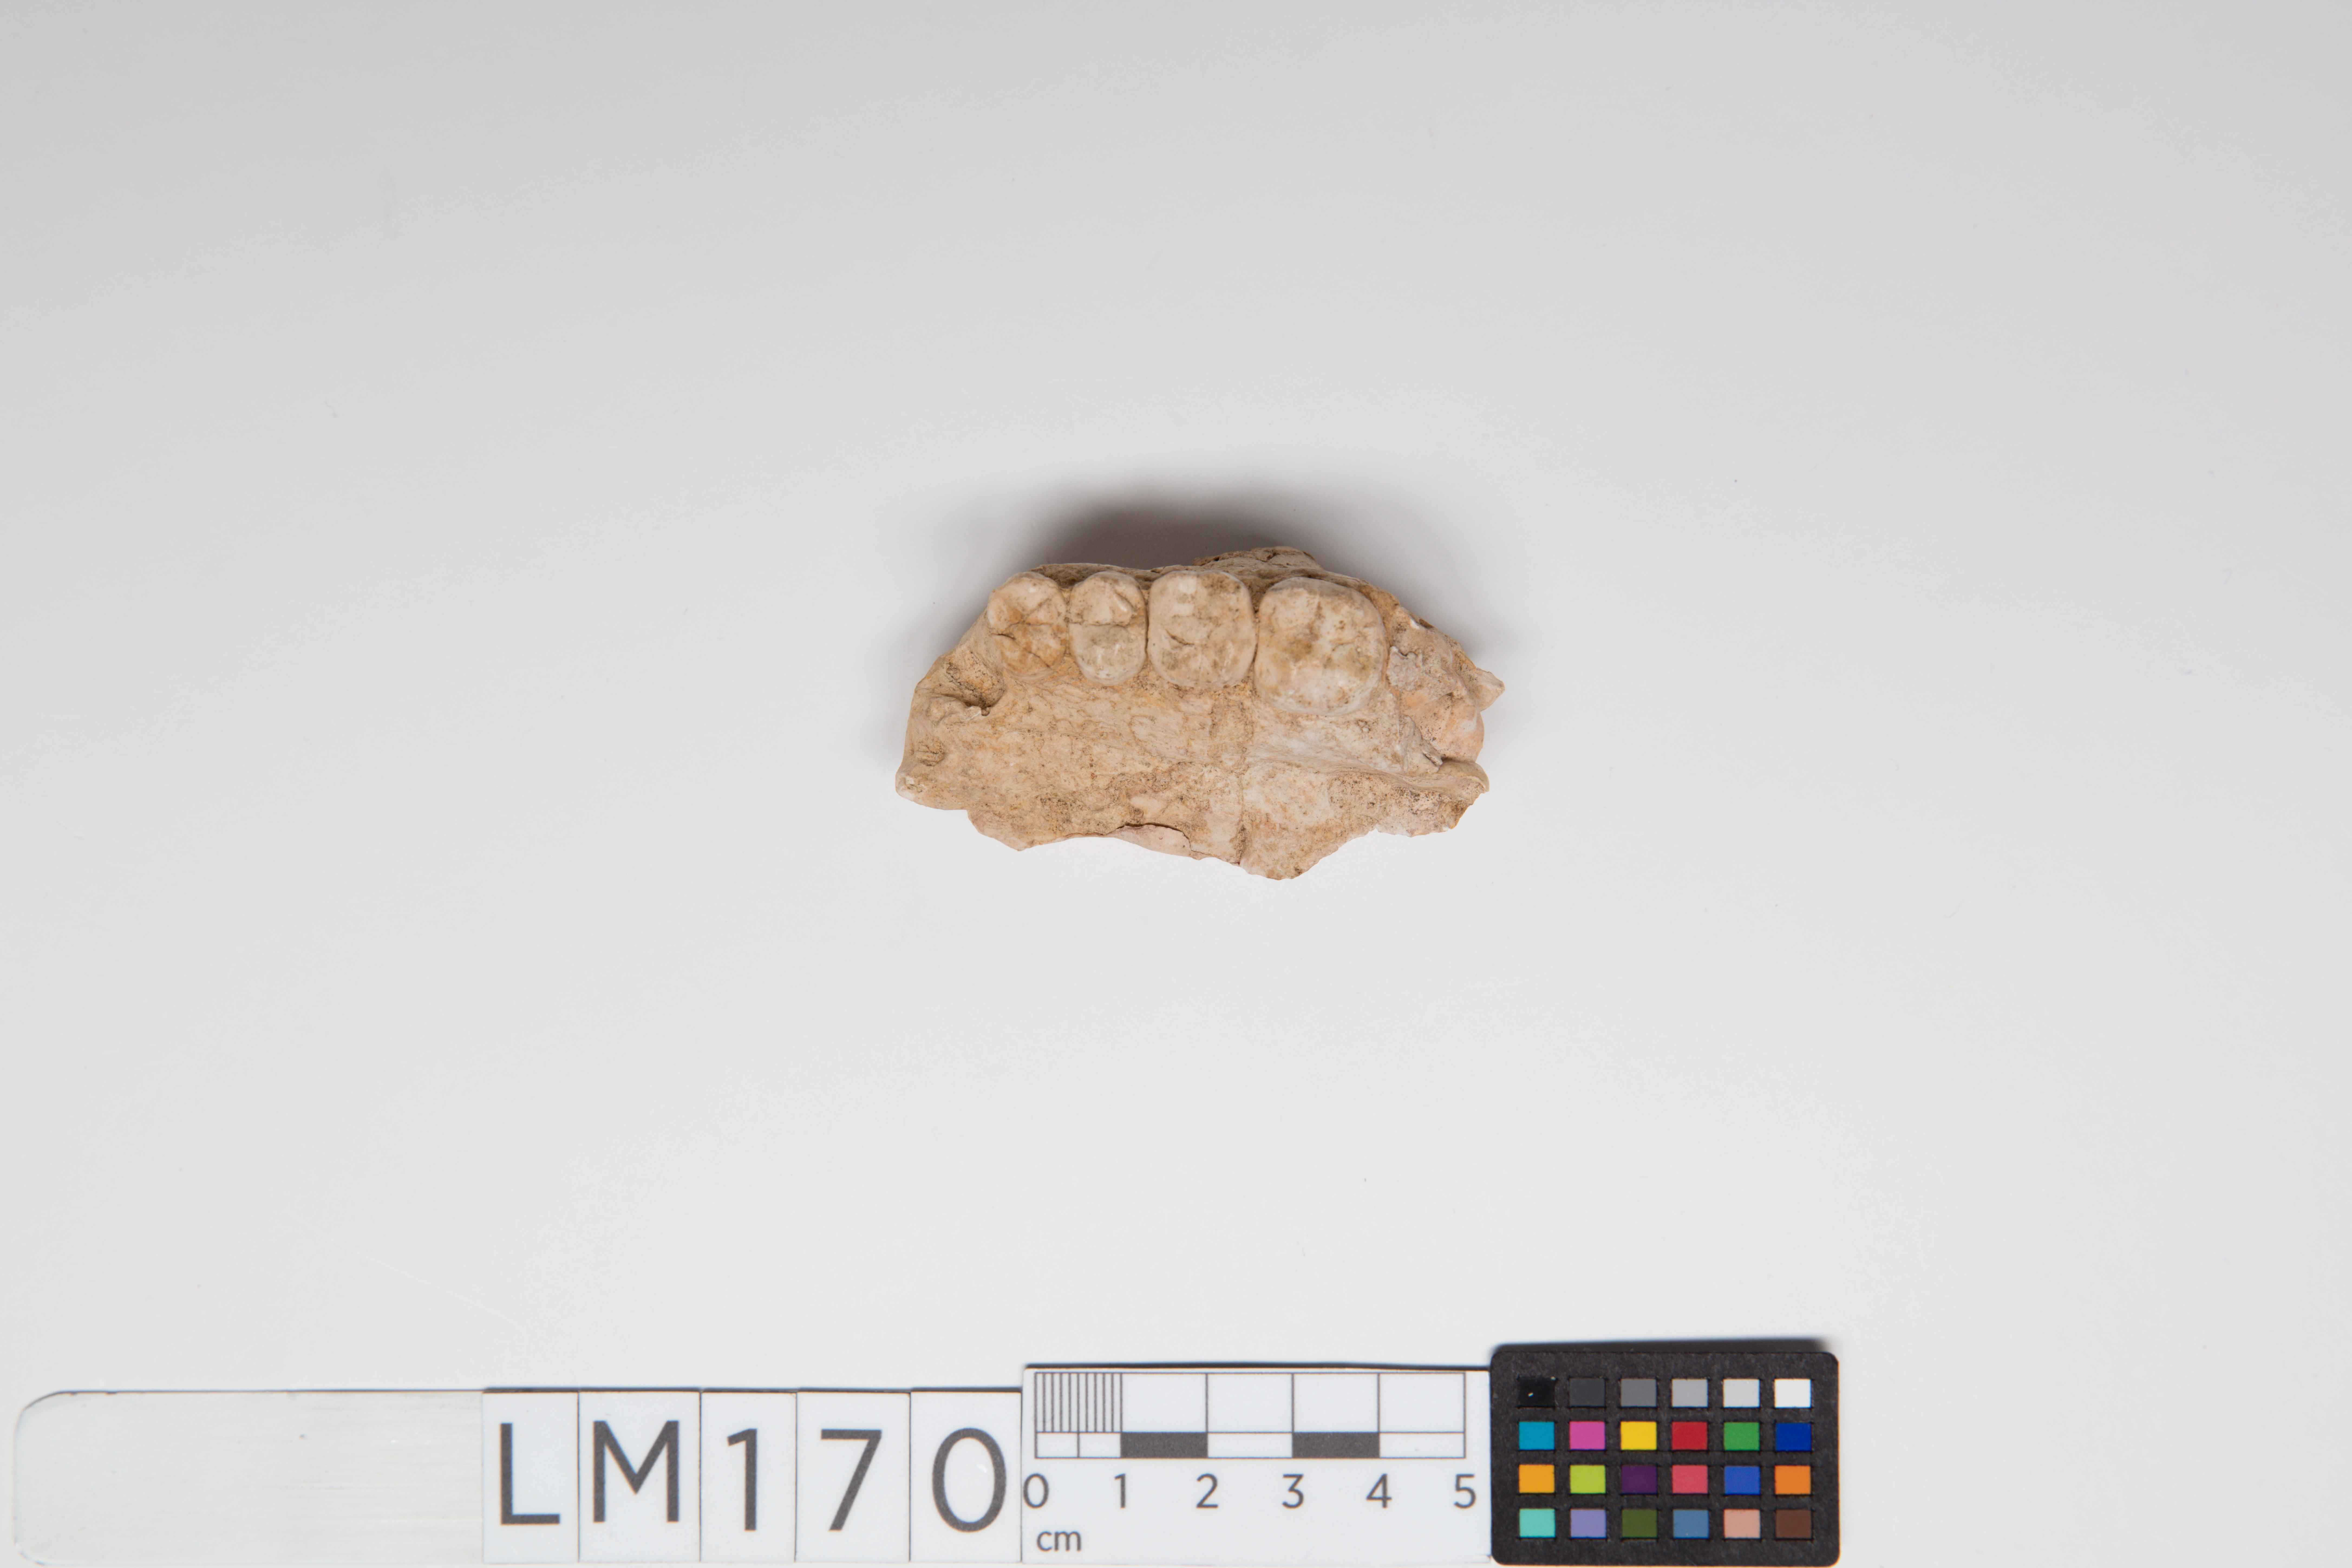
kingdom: Animalia
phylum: Chordata
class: Mammalia
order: Primates
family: Hominidae
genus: Australopithecus
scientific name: Australopithecus africanus
